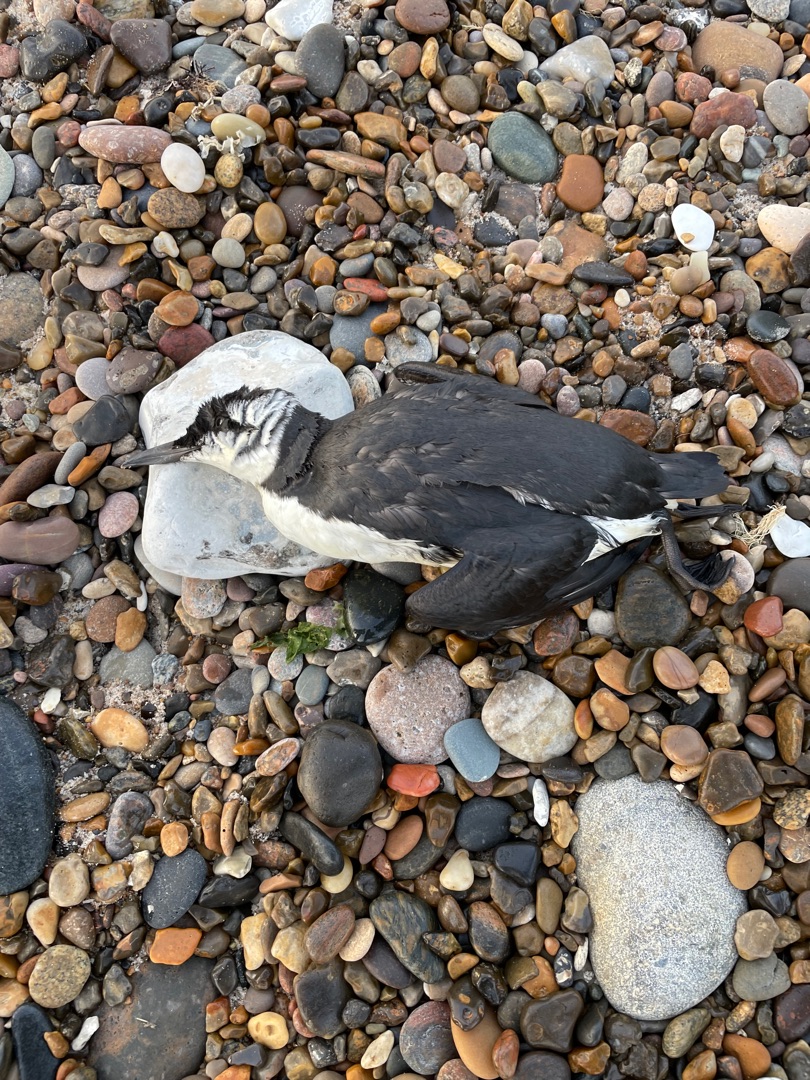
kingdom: Animalia
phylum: Chordata
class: Aves
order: Charadriiformes
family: Alcidae
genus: Uria
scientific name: Uria aalge
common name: Lomvie
